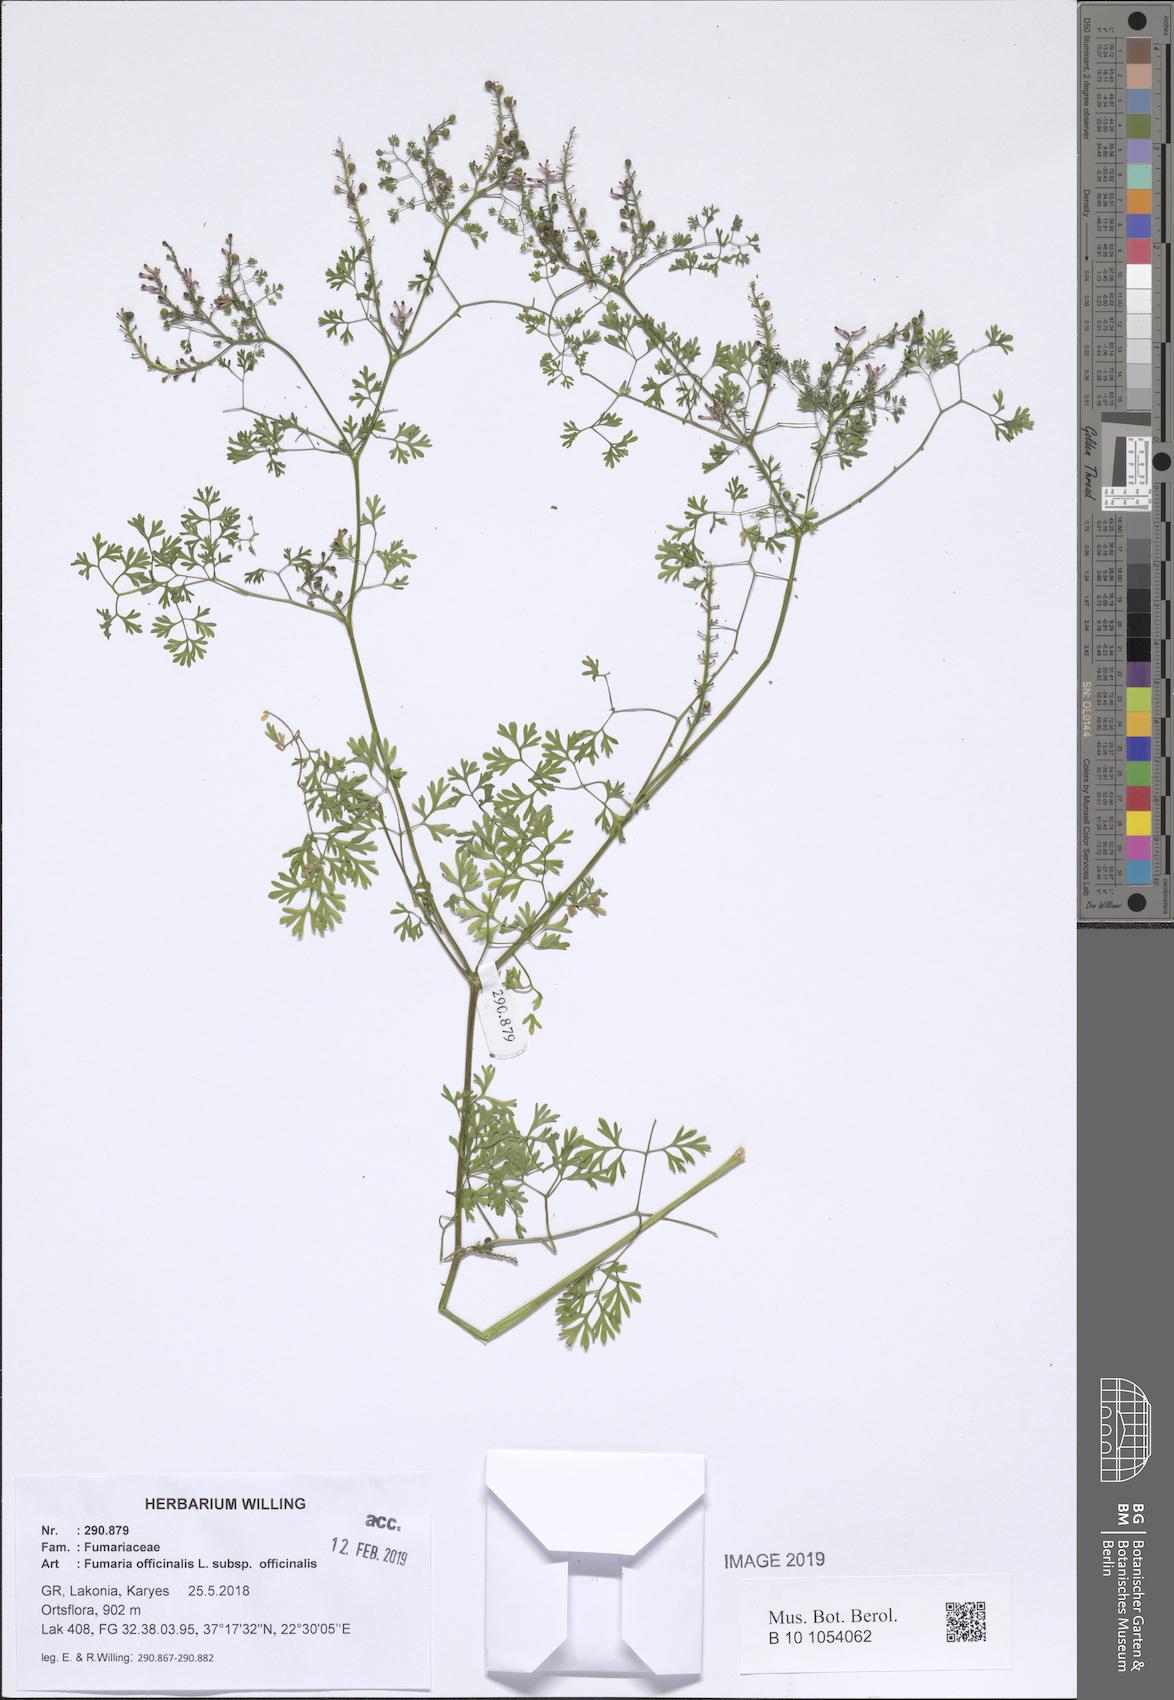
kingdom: Plantae
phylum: Tracheophyta
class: Magnoliopsida
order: Ranunculales
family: Papaveraceae
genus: Fumaria
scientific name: Fumaria officinalis
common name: Common fumitory
